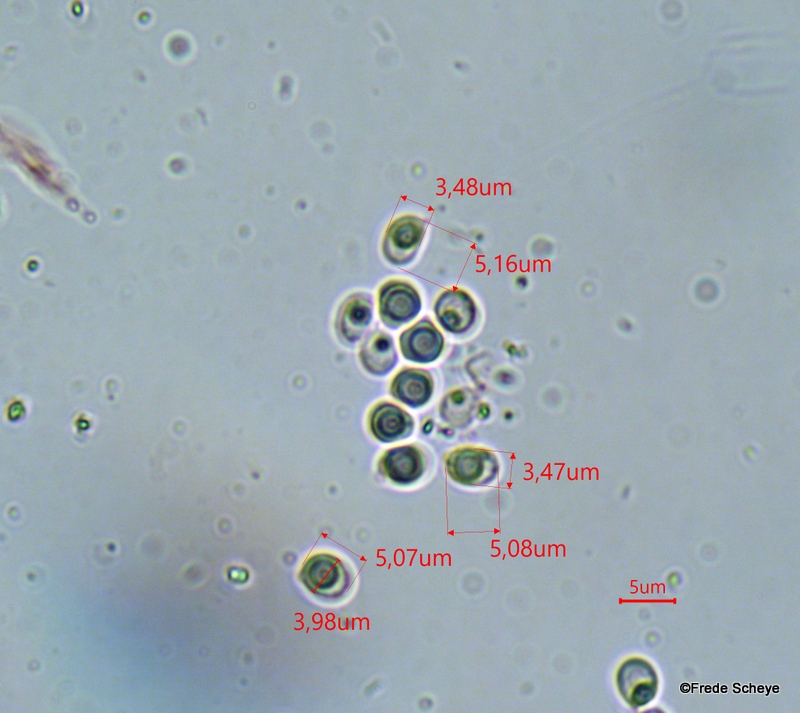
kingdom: Fungi
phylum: Basidiomycota
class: Agaricomycetes
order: Corticiales
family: Corticiaceae
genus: Lyomyces
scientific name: Lyomyces sambuci
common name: almindelig hyldehinde
